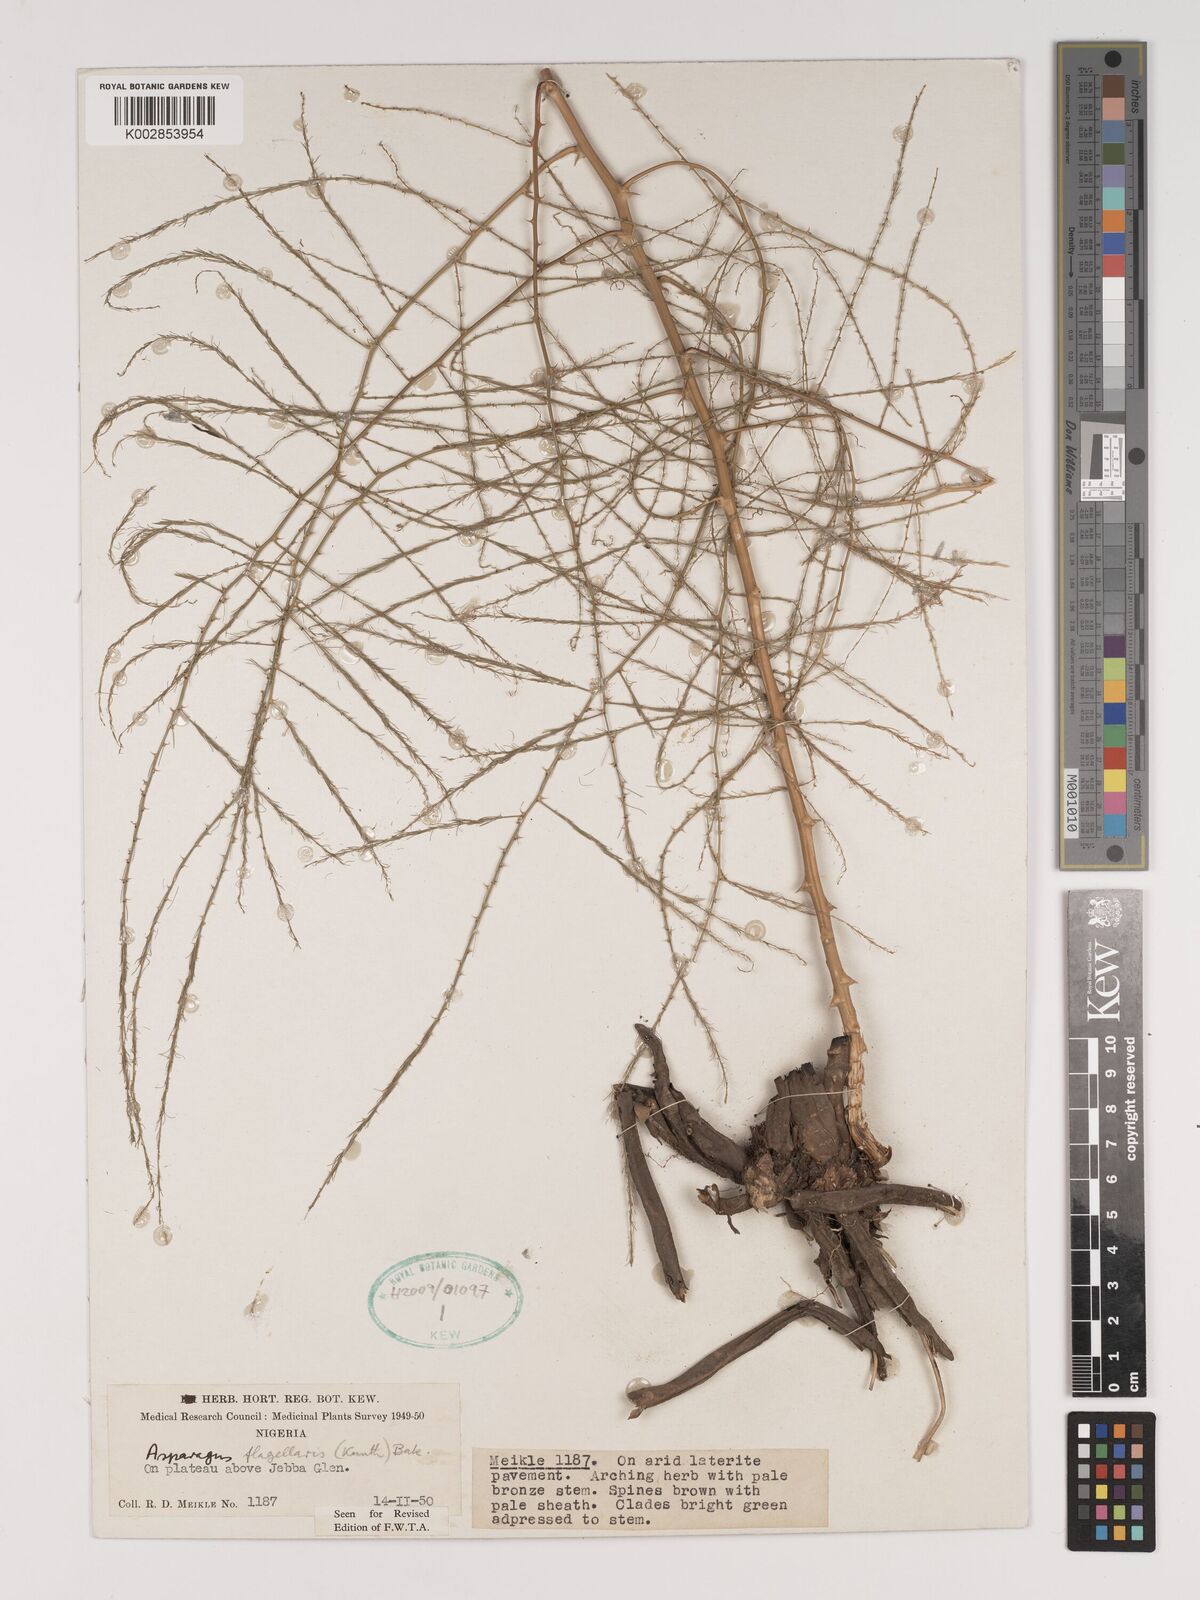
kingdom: Plantae
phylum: Tracheophyta
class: Liliopsida
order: Asparagales
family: Asparagaceae
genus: Asparagus
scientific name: Asparagus flagellaris
